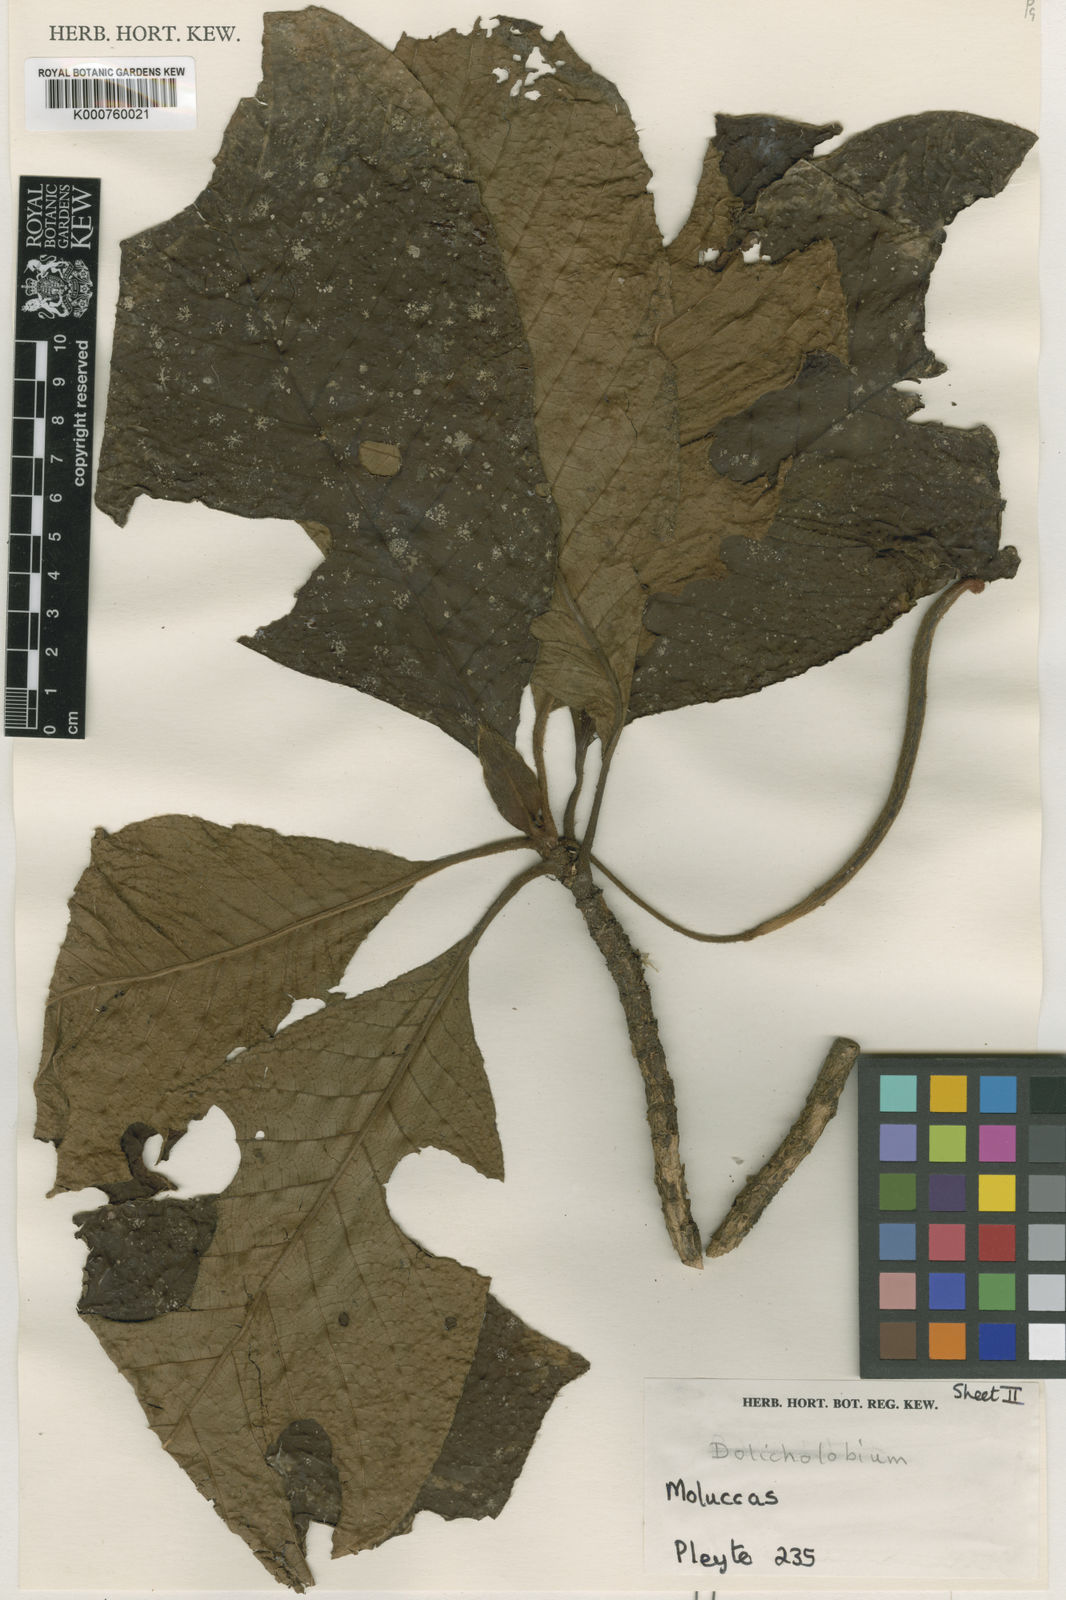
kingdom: Plantae
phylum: Tracheophyta
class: Magnoliopsida
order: Gentianales
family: Rubiaceae
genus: Dolicholobium
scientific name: Dolicholobium moluccense
